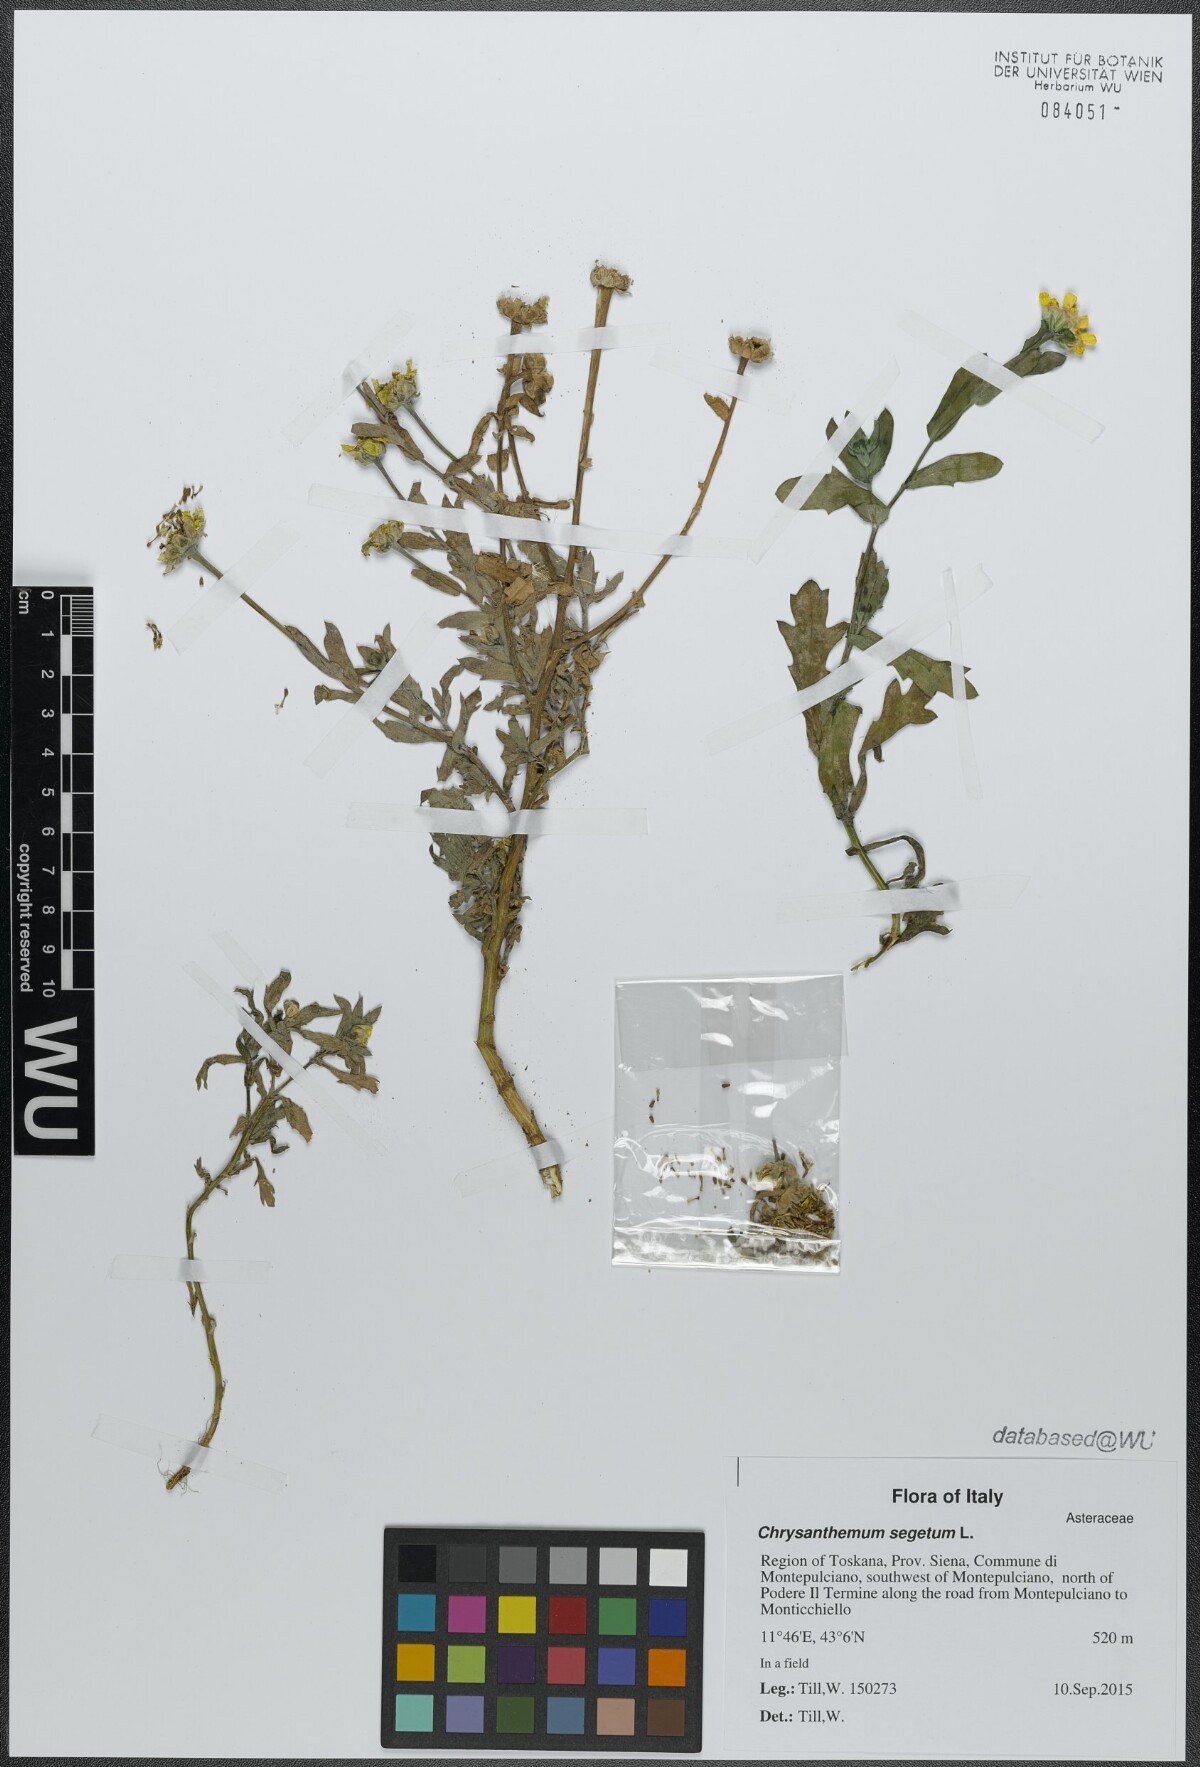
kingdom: Plantae
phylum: Tracheophyta
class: Magnoliopsida
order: Asterales
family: Asteraceae
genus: Glebionis
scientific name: Glebionis segetum
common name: Corndaisy
